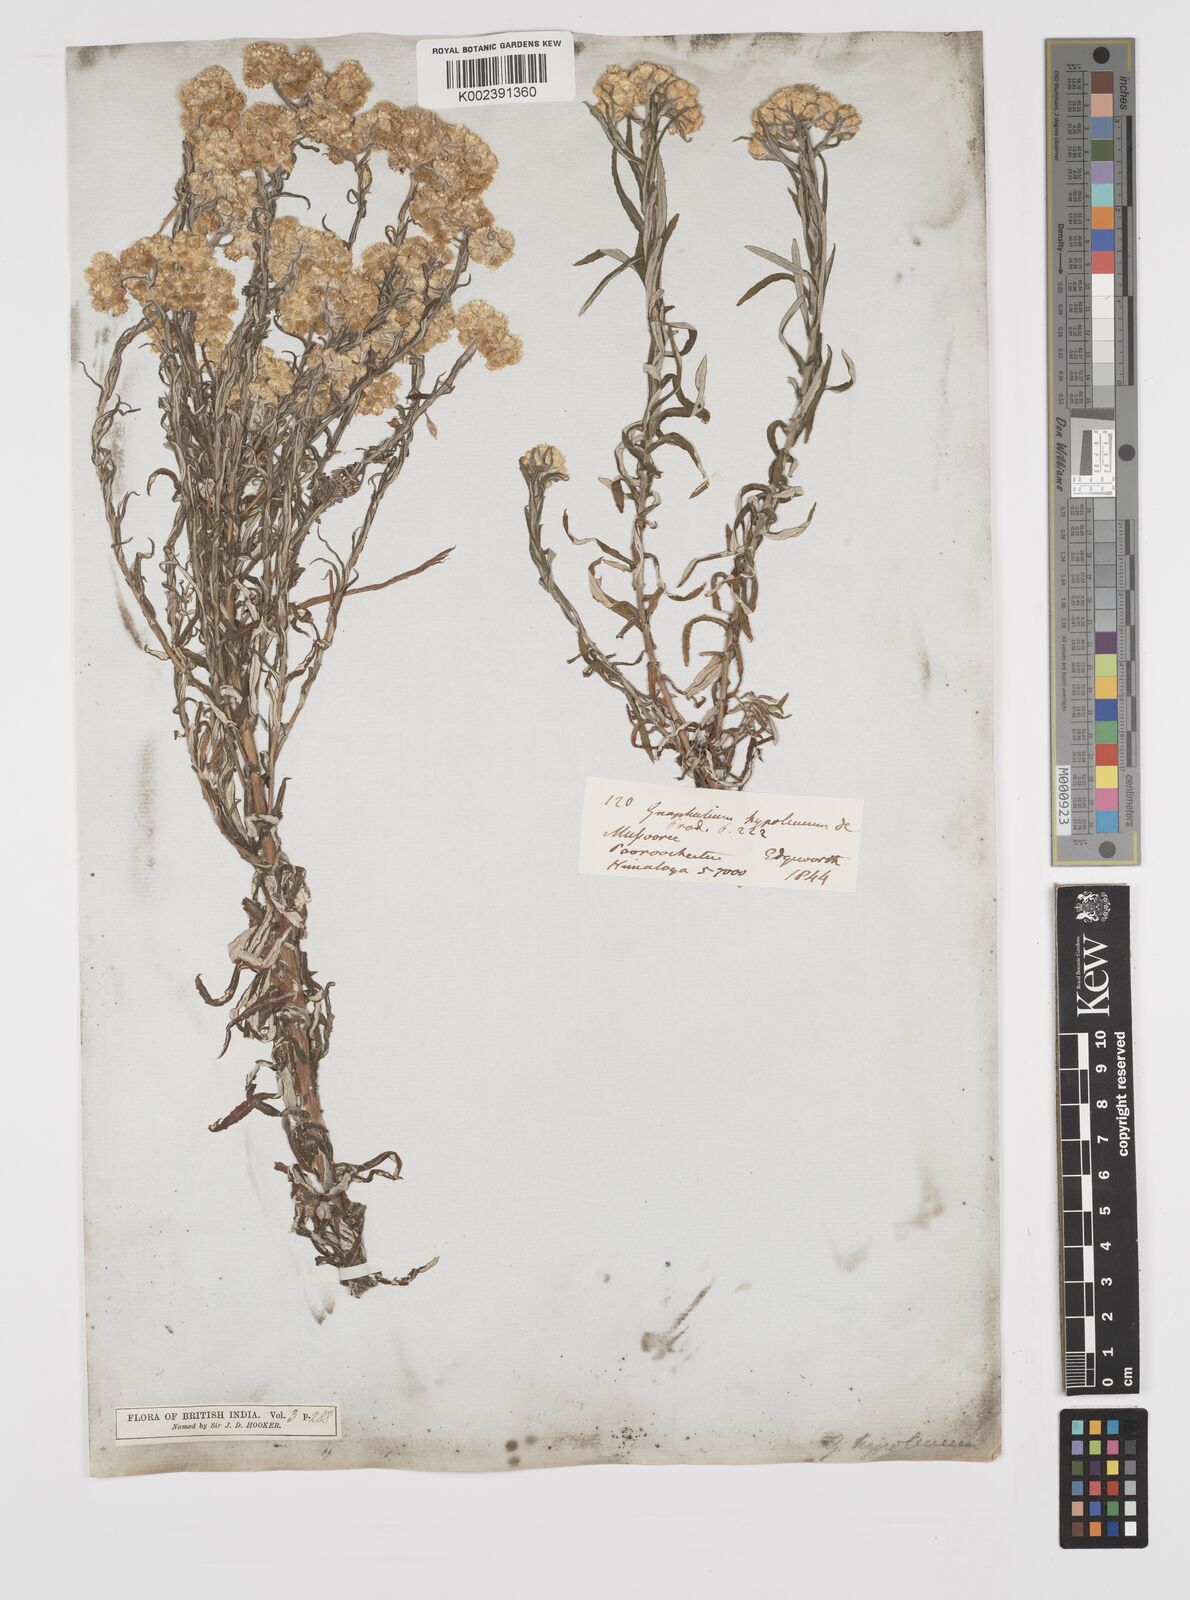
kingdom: Plantae
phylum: Tracheophyta
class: Magnoliopsida
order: Asterales
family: Asteraceae
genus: Pseudognaphalium
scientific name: Pseudognaphalium hypoleucum
